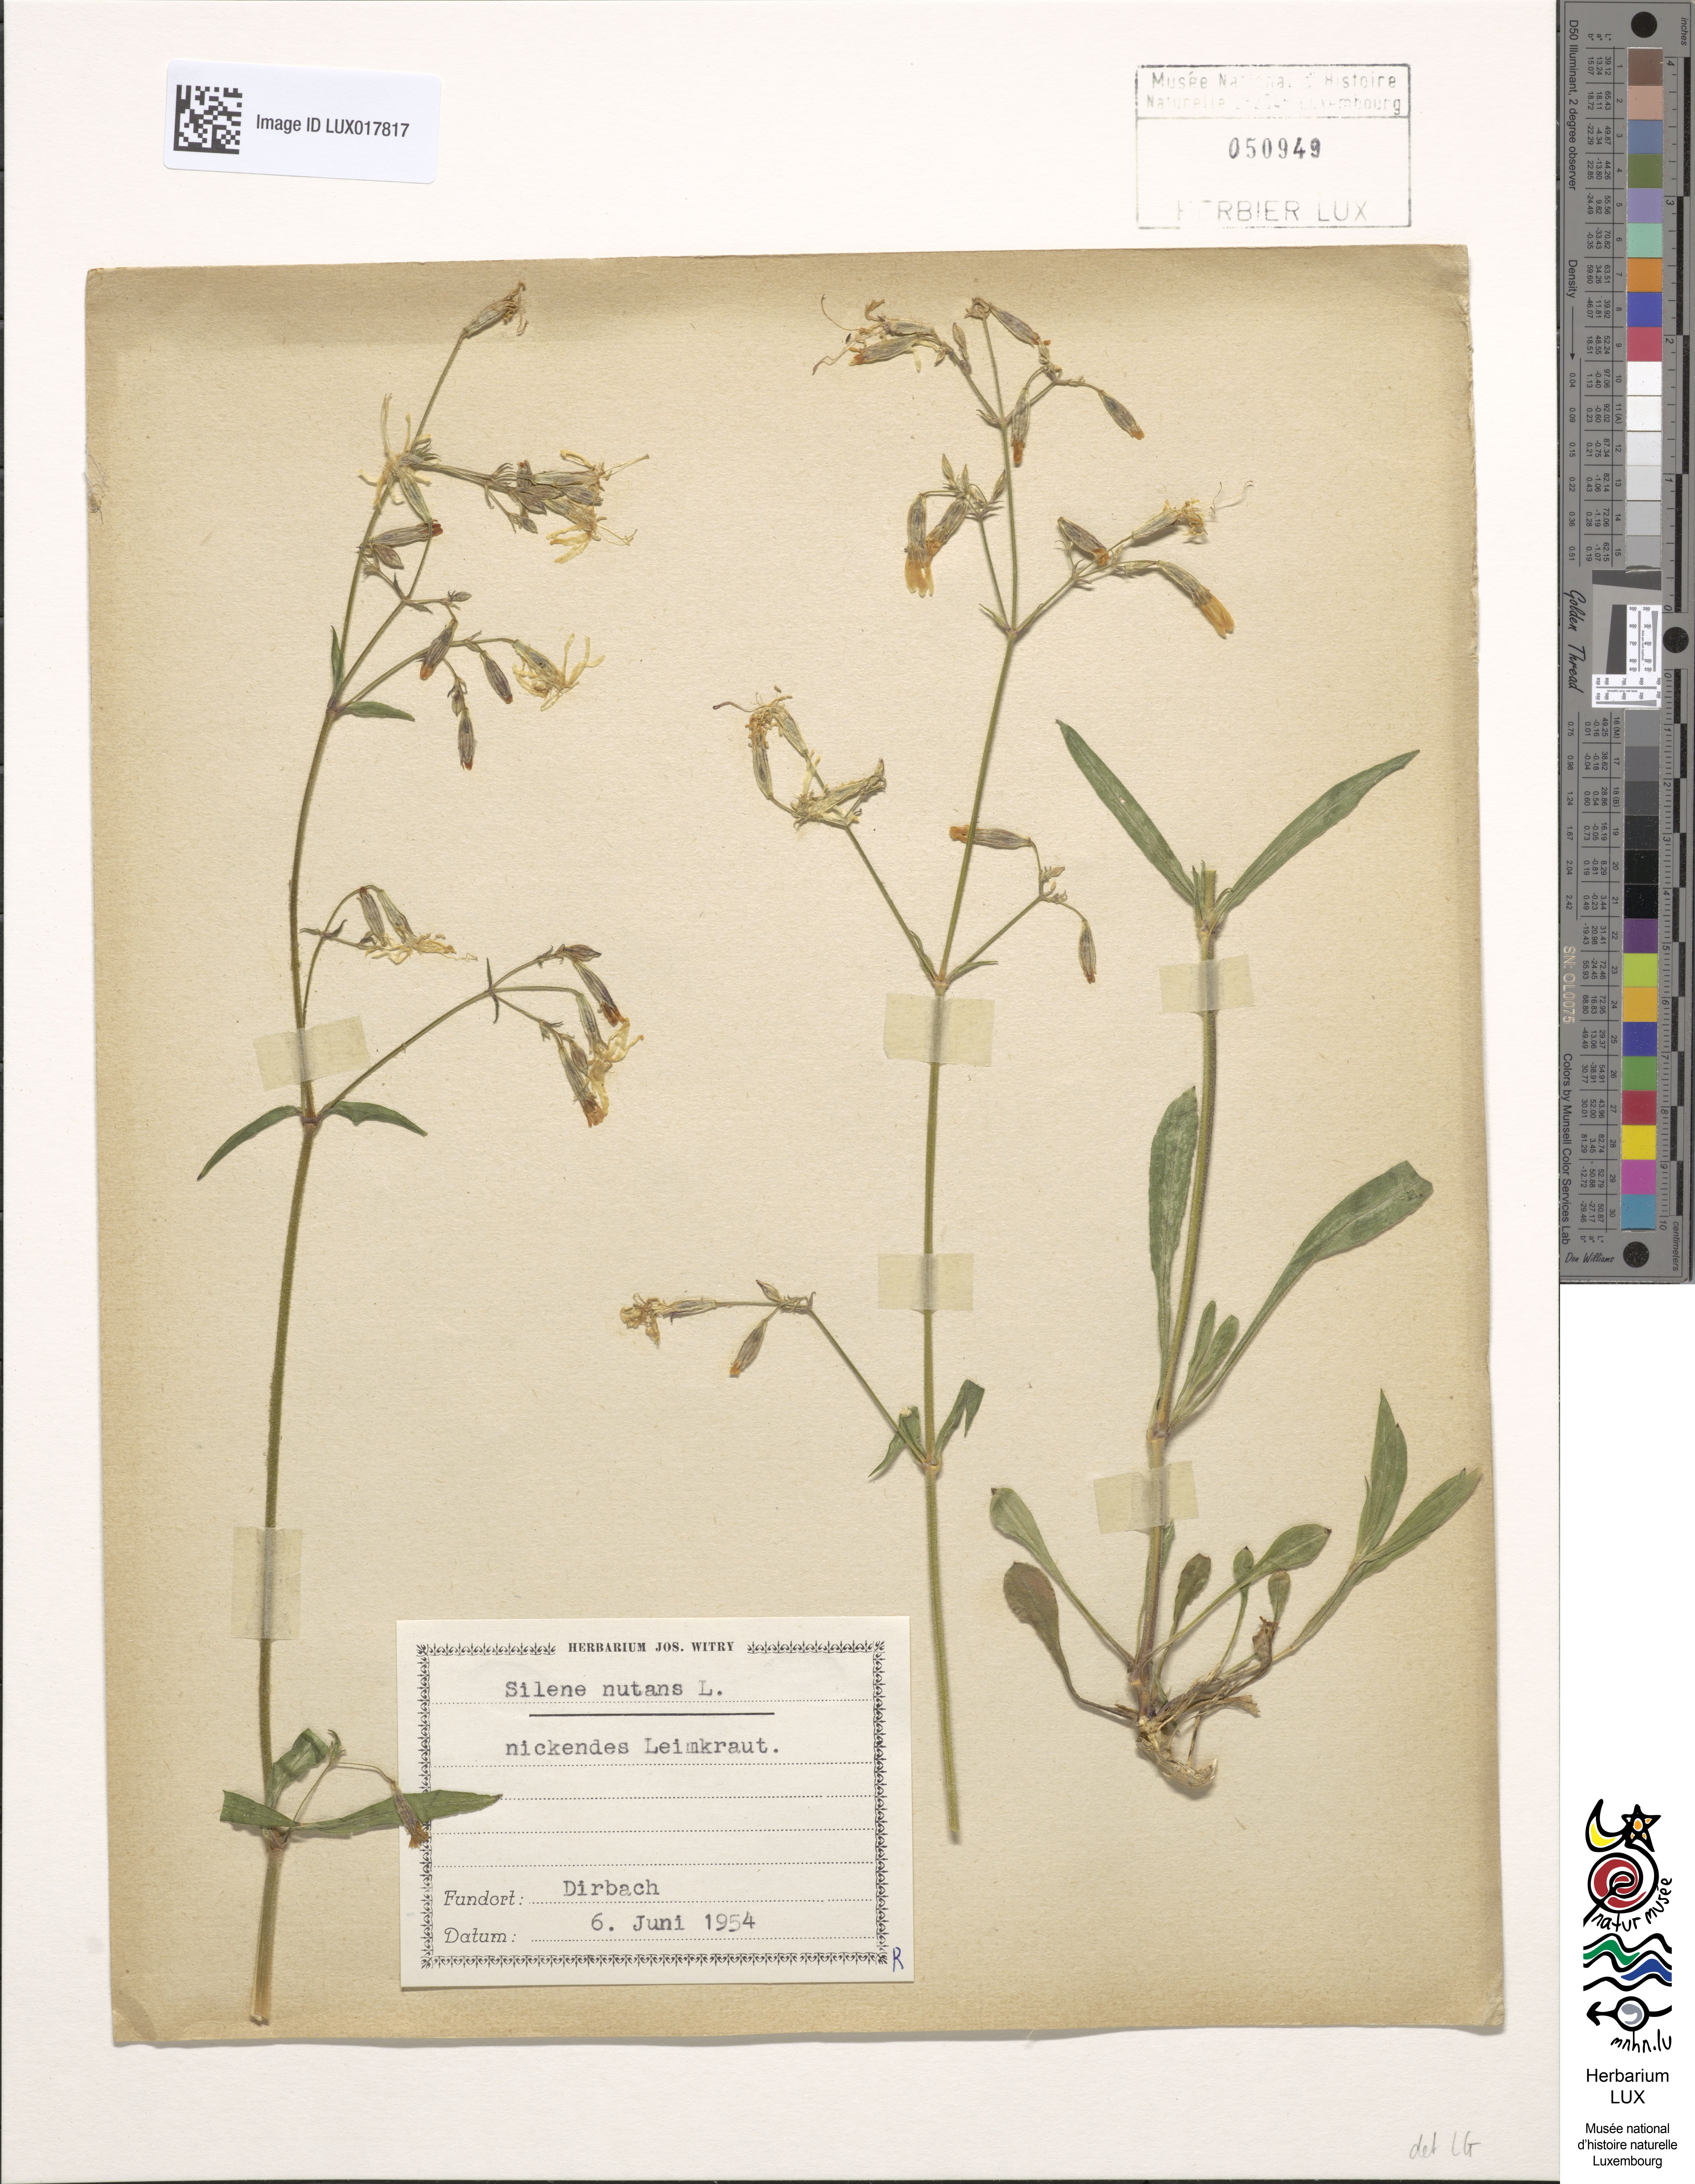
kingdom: Plantae
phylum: Tracheophyta
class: Magnoliopsida
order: Caryophyllales
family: Caryophyllaceae
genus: Silene
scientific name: Silene nutans
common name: Nottingham catchfly
